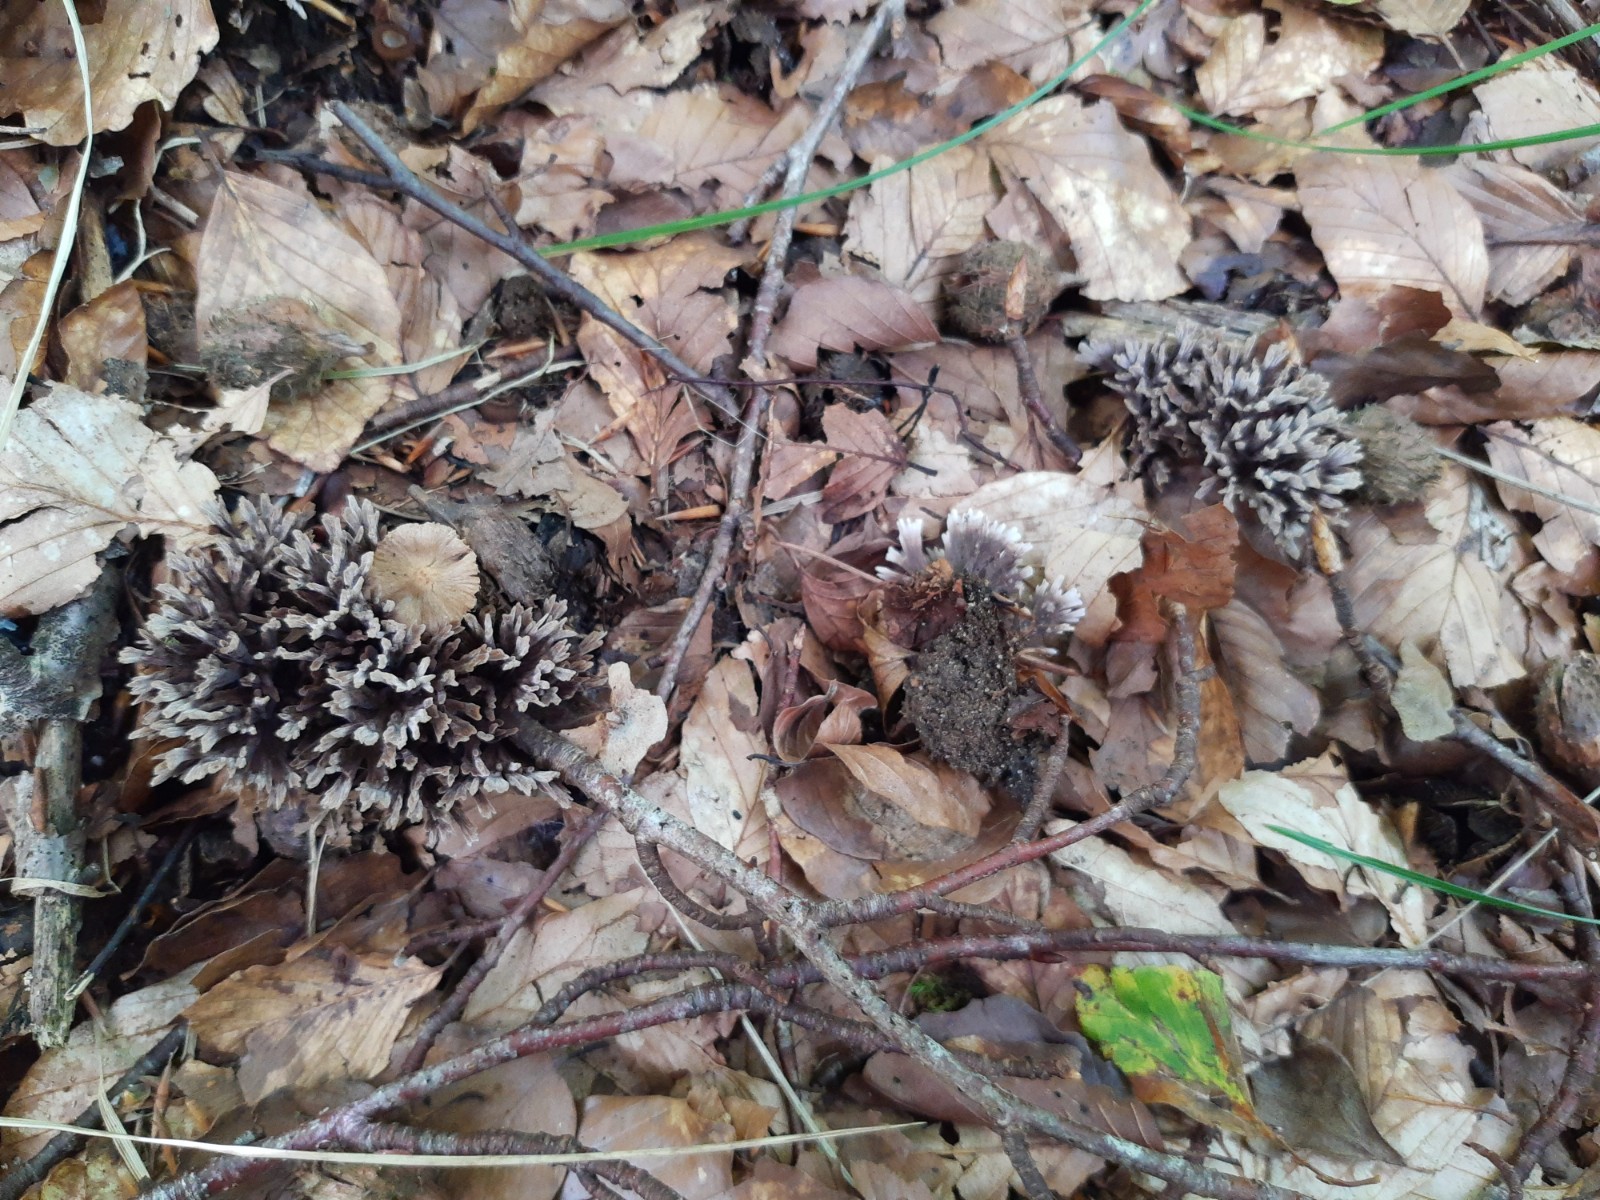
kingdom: Fungi
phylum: Basidiomycota
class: Agaricomycetes
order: Thelephorales
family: Thelephoraceae
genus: Thelephora
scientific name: Thelephora palmata
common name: grenet frynsesvamp
